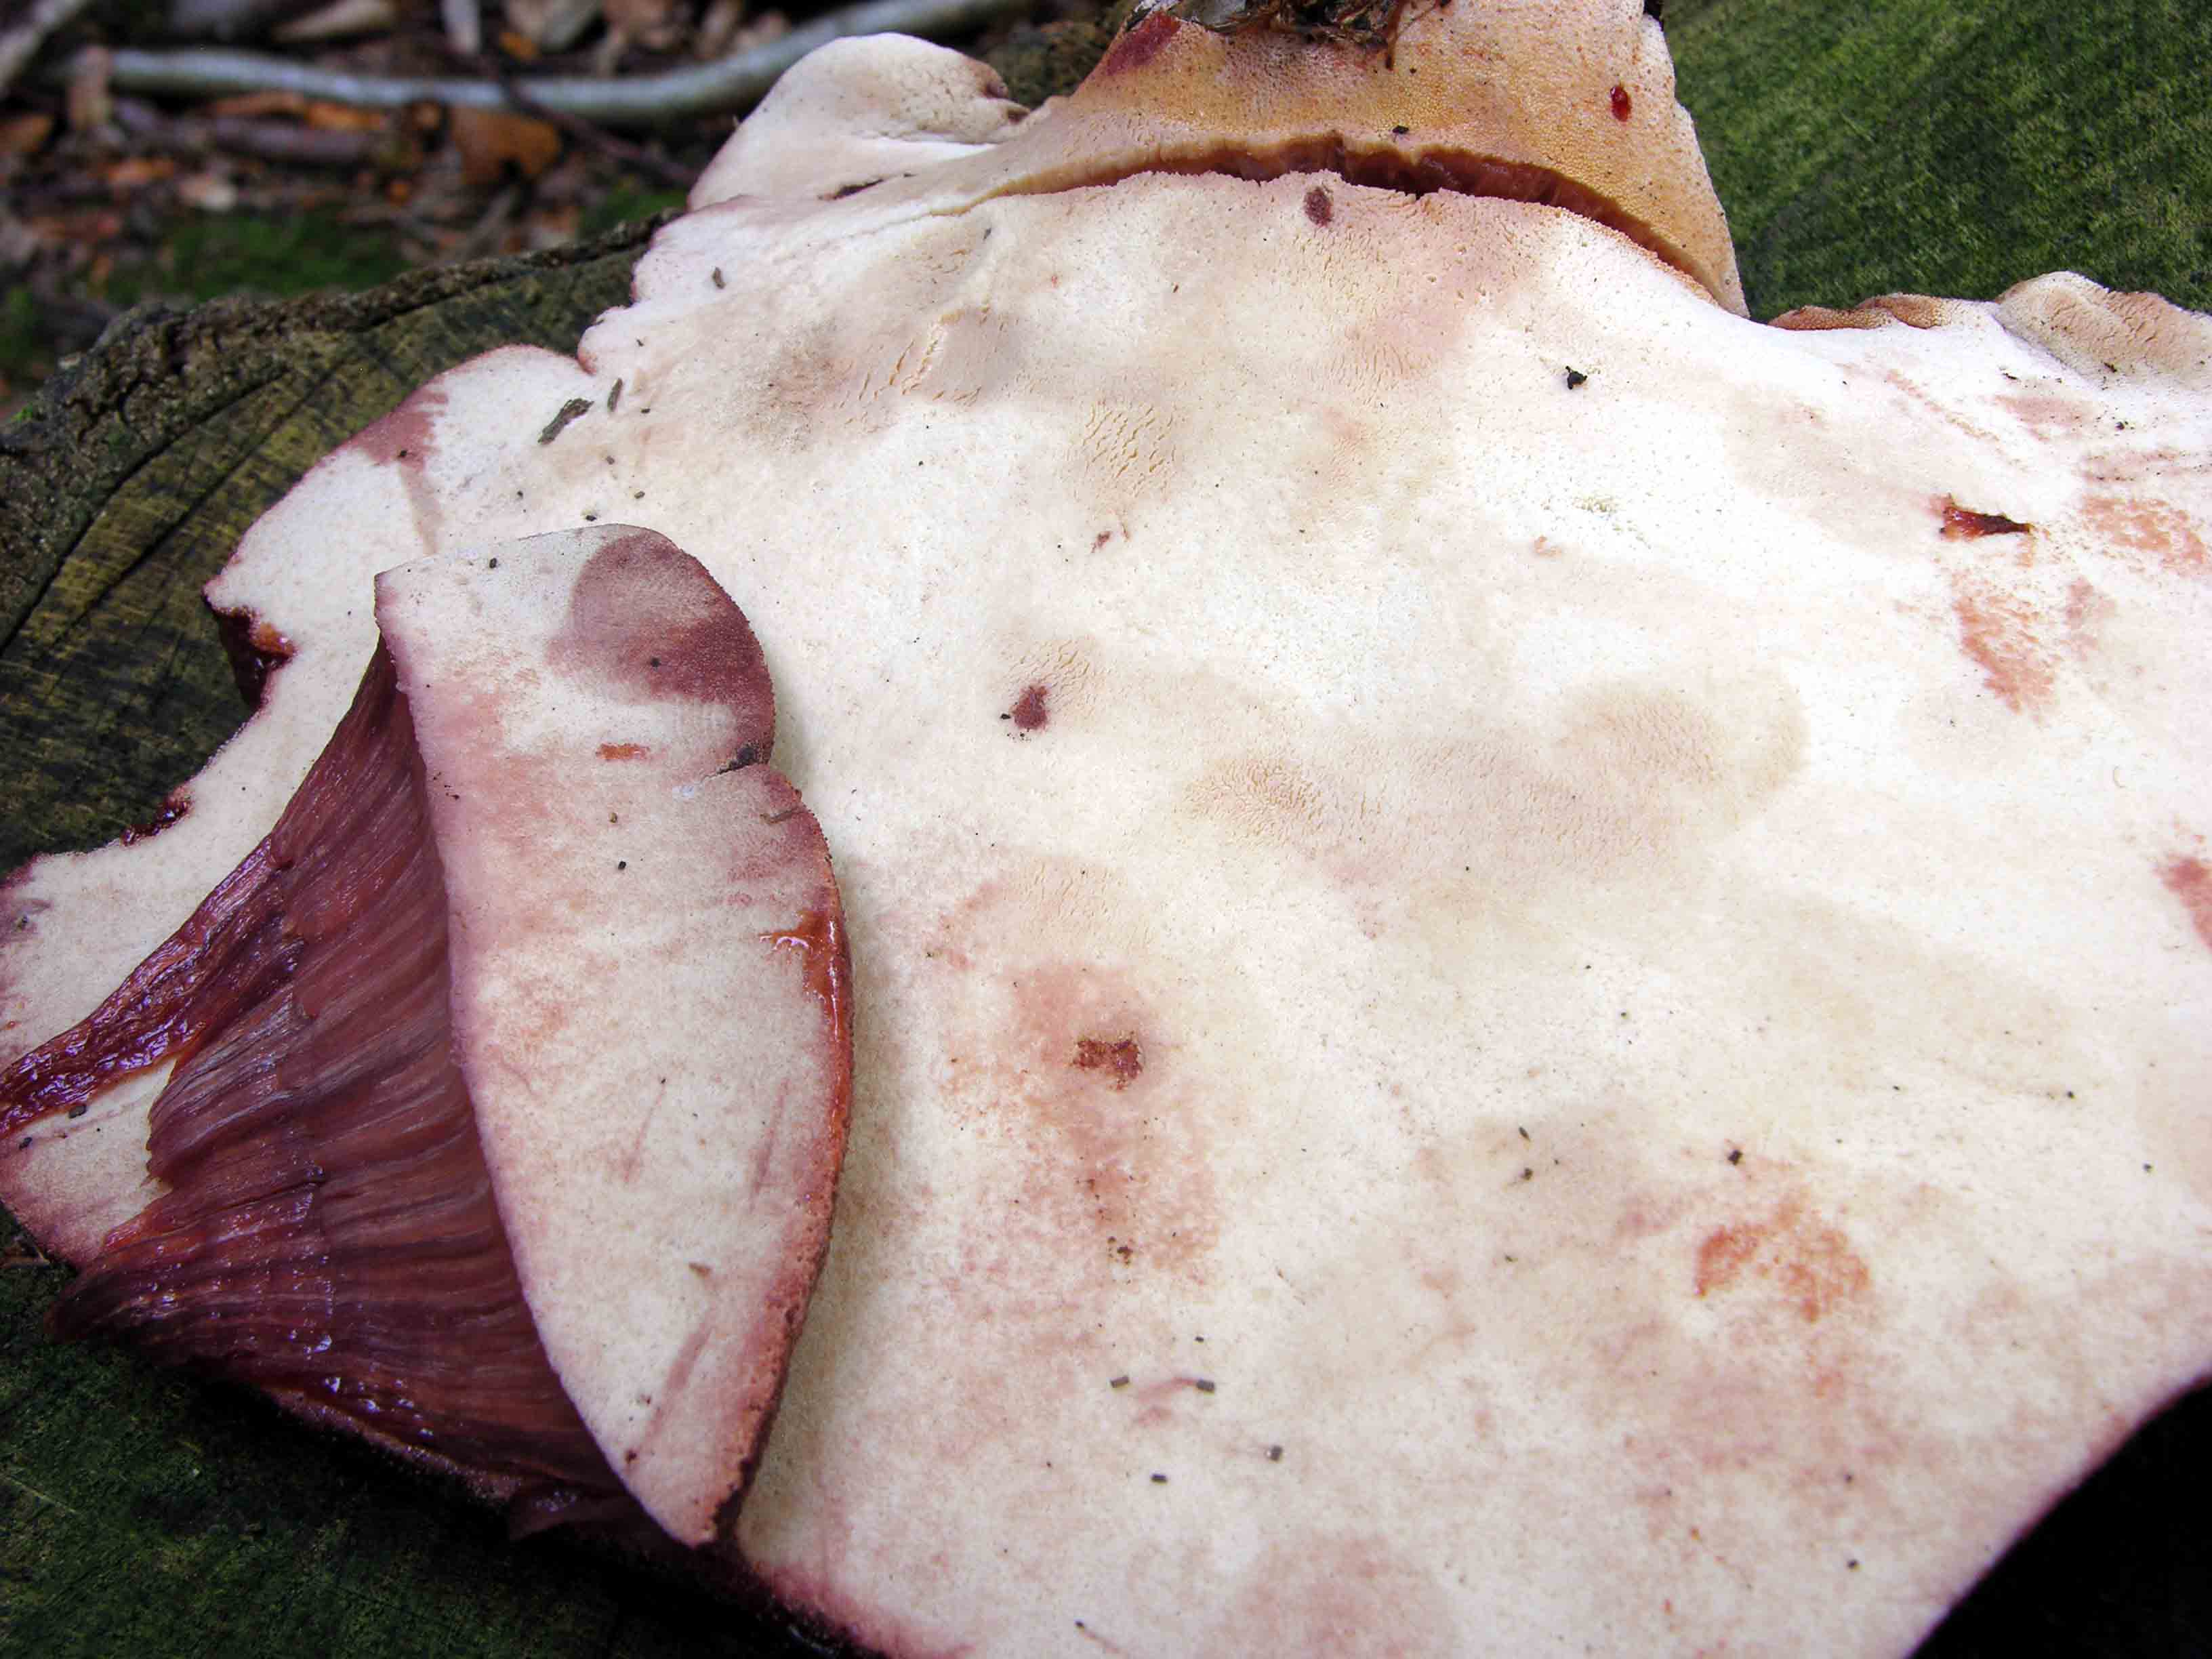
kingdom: Fungi
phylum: Basidiomycota
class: Agaricomycetes
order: Agaricales
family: Fistulinaceae
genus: Fistulina
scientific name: Fistulina hepatica
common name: oksetunge
